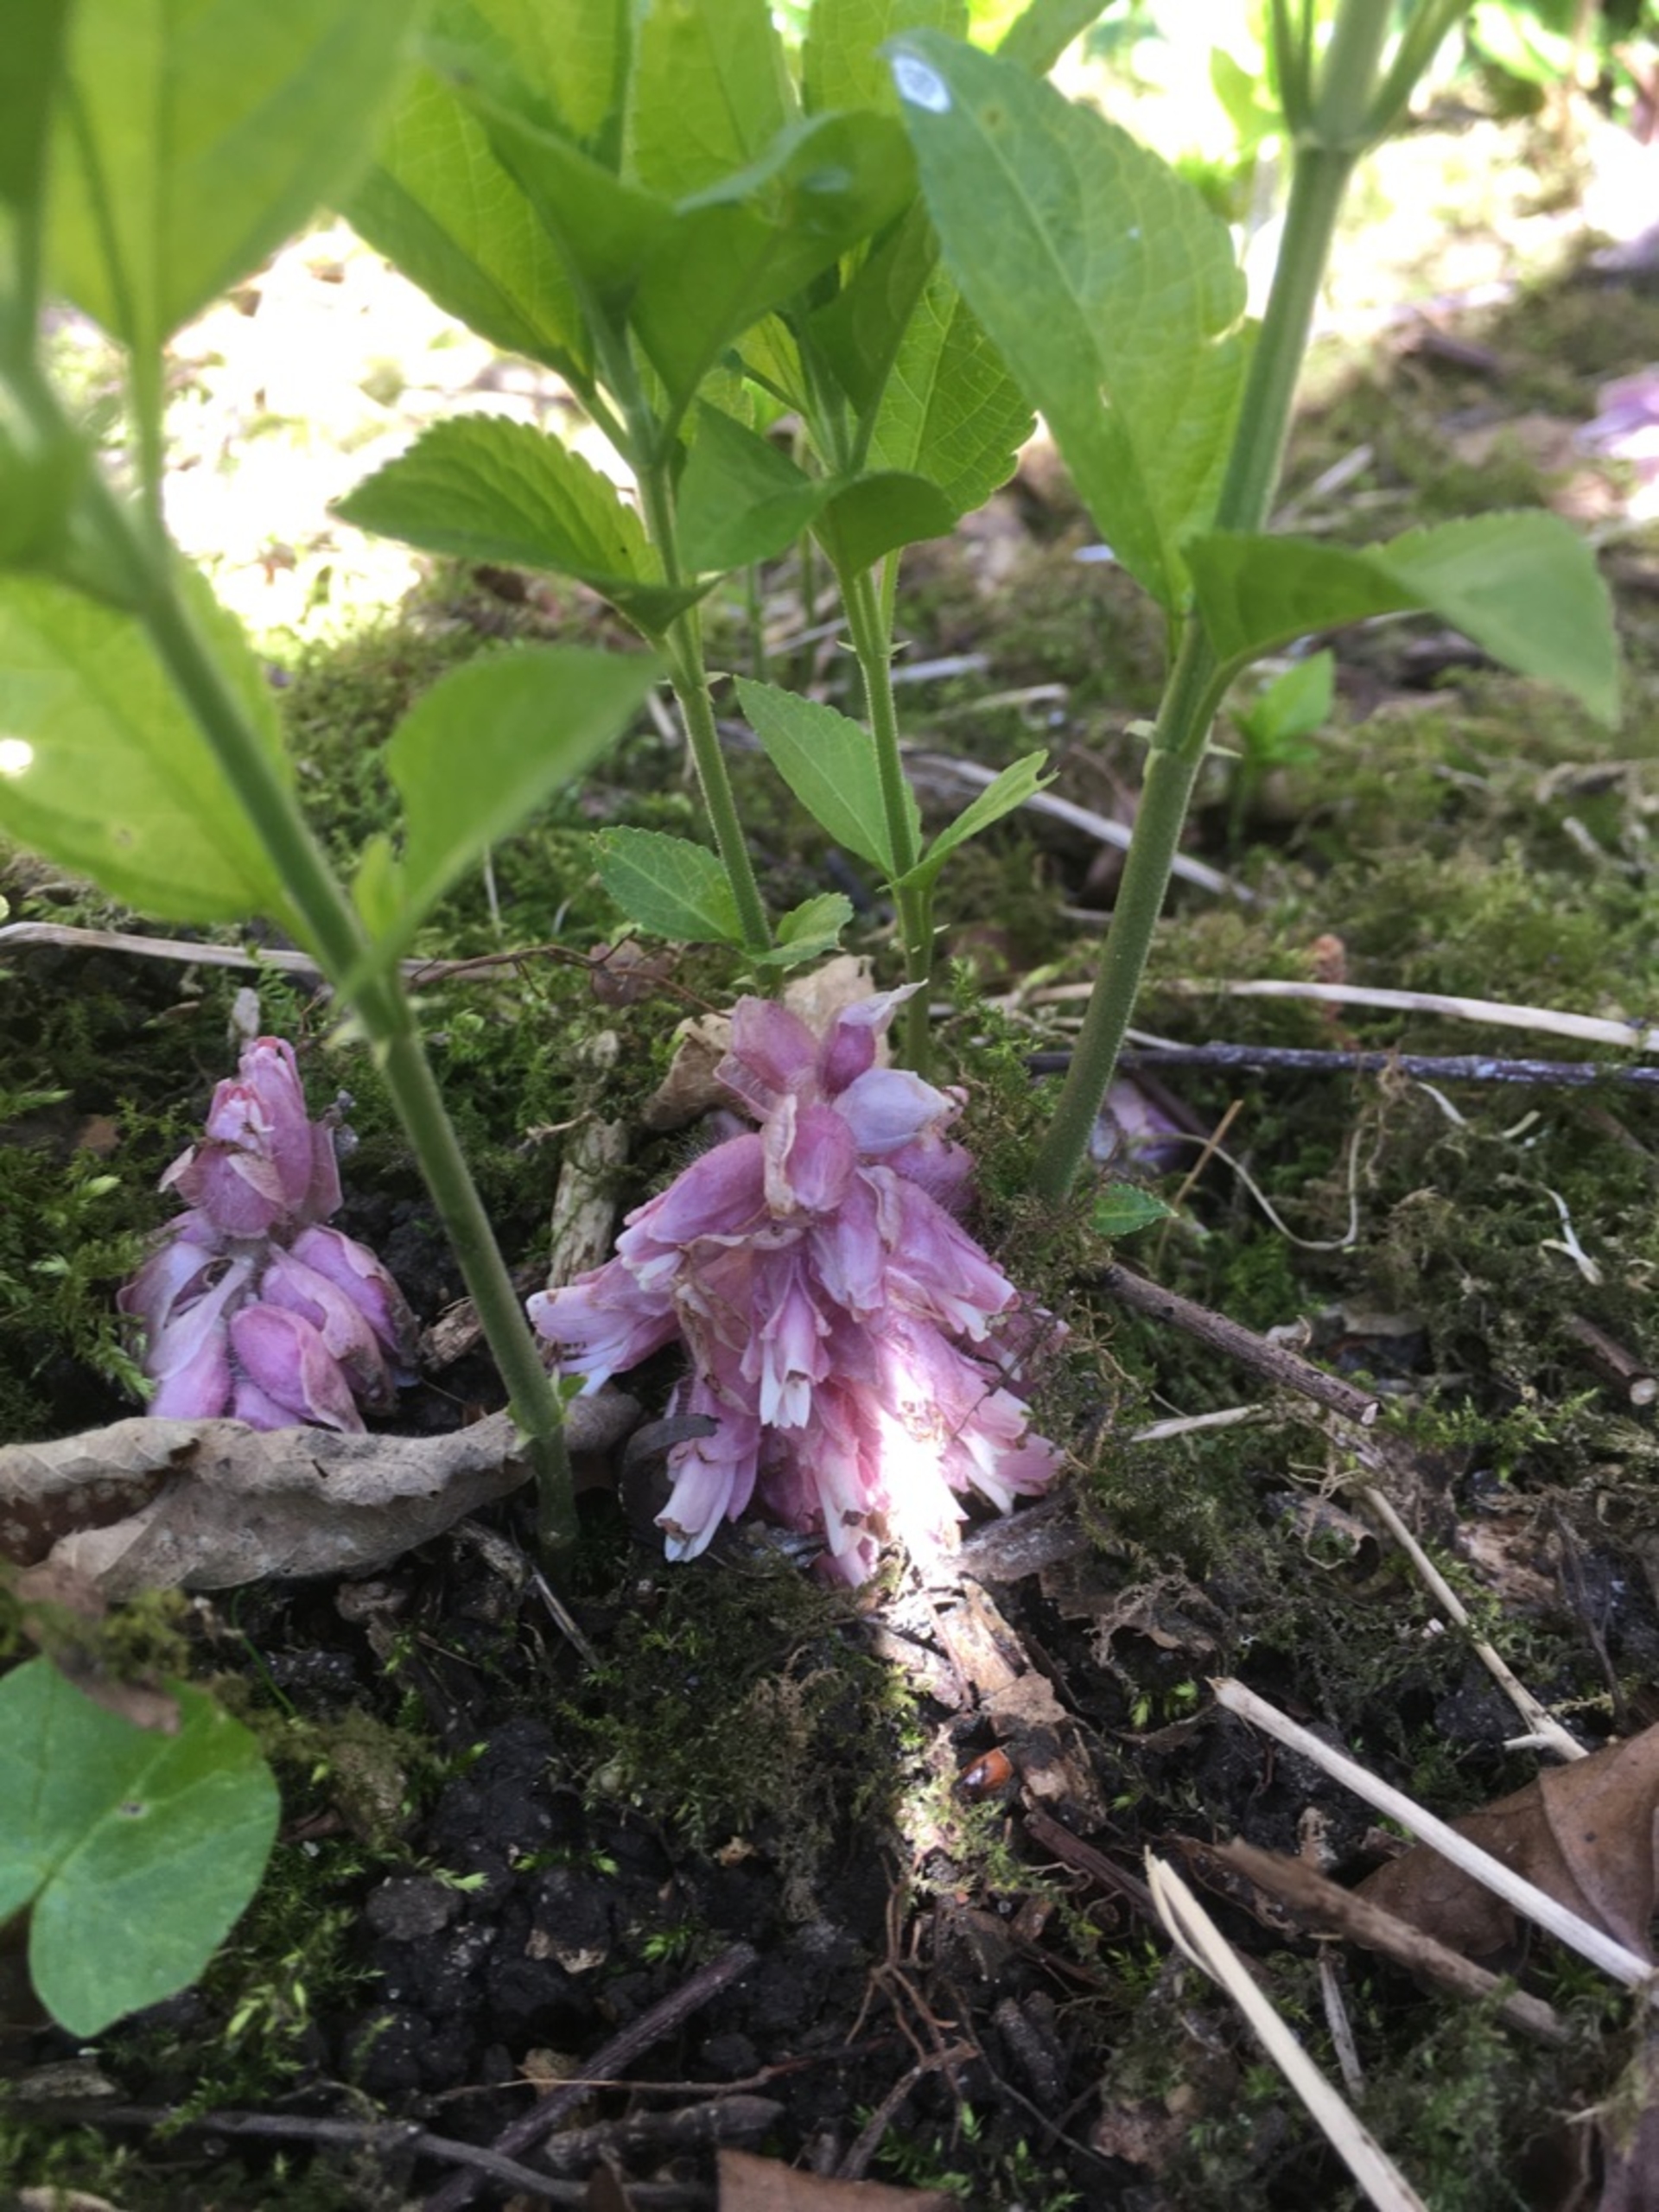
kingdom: Plantae
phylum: Tracheophyta
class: Magnoliopsida
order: Lamiales
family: Orobanchaceae
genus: Lathraea
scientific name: Lathraea squamaria
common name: Skælrod
